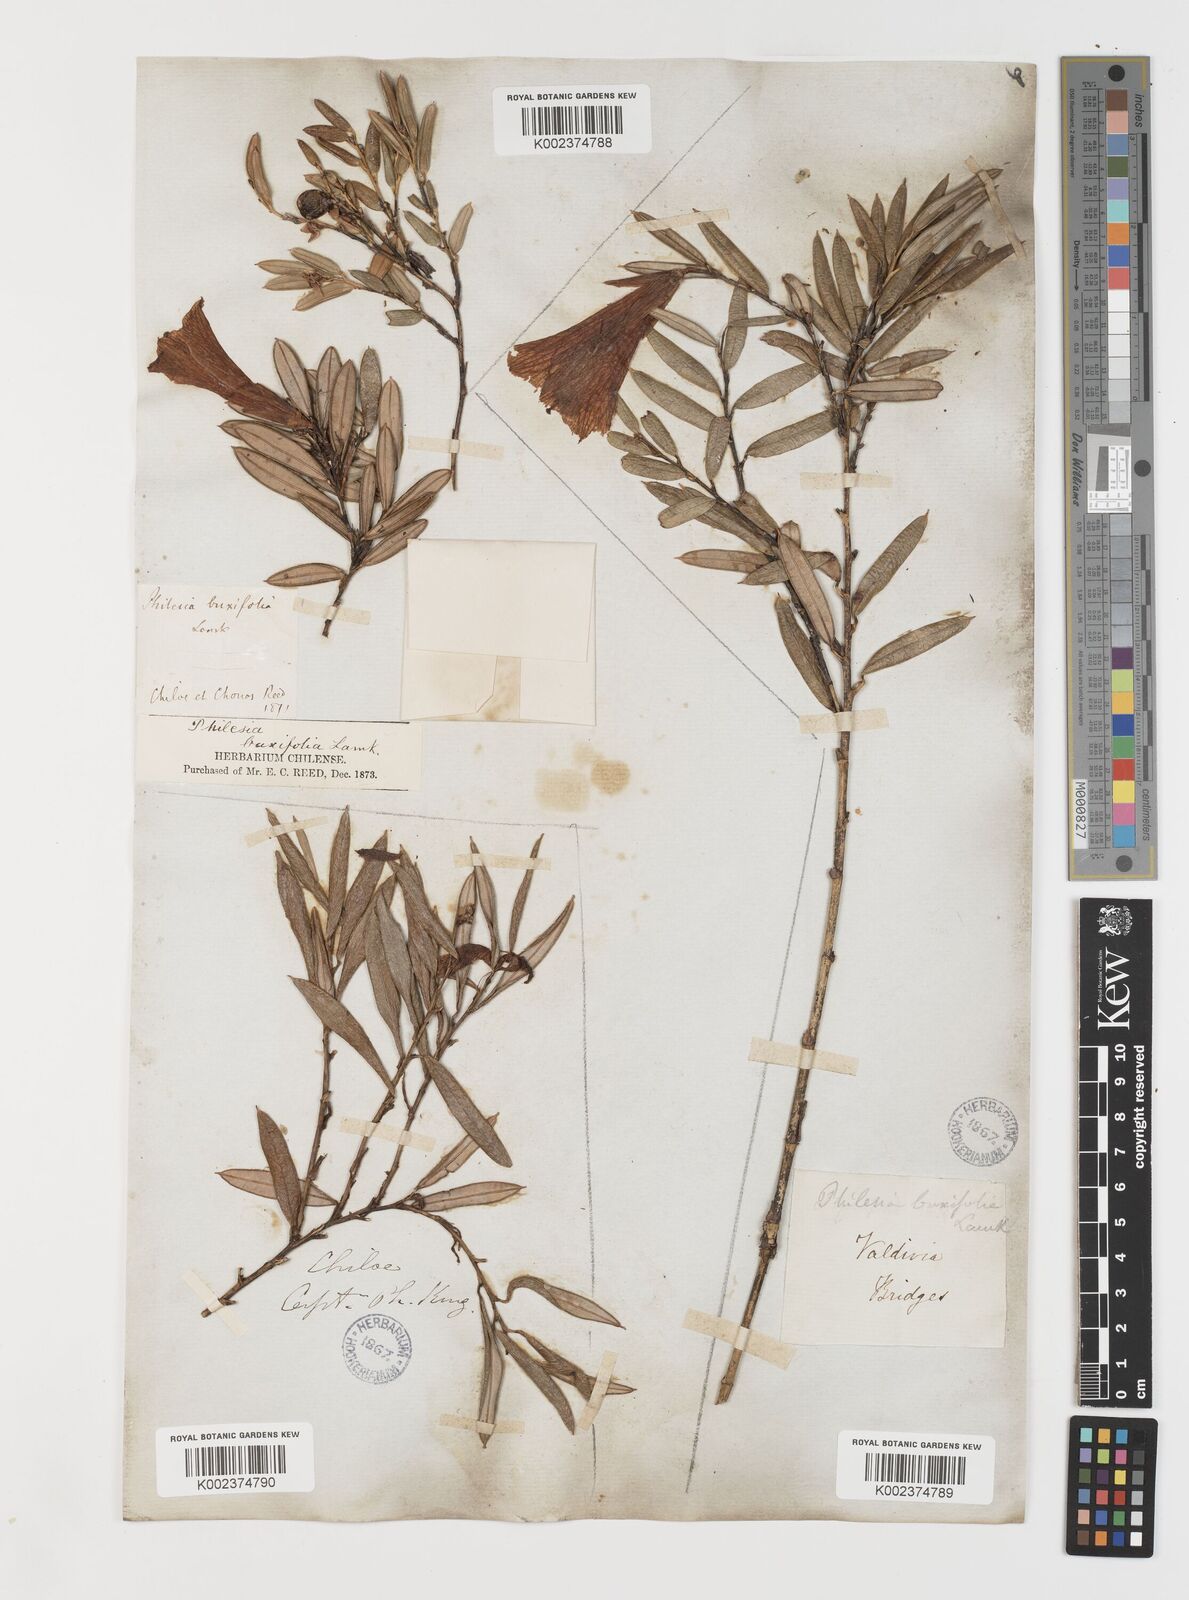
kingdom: Plantae
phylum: Tracheophyta
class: Liliopsida
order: Liliales
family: Philesiaceae
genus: Philesia
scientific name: Philesia magellanica
